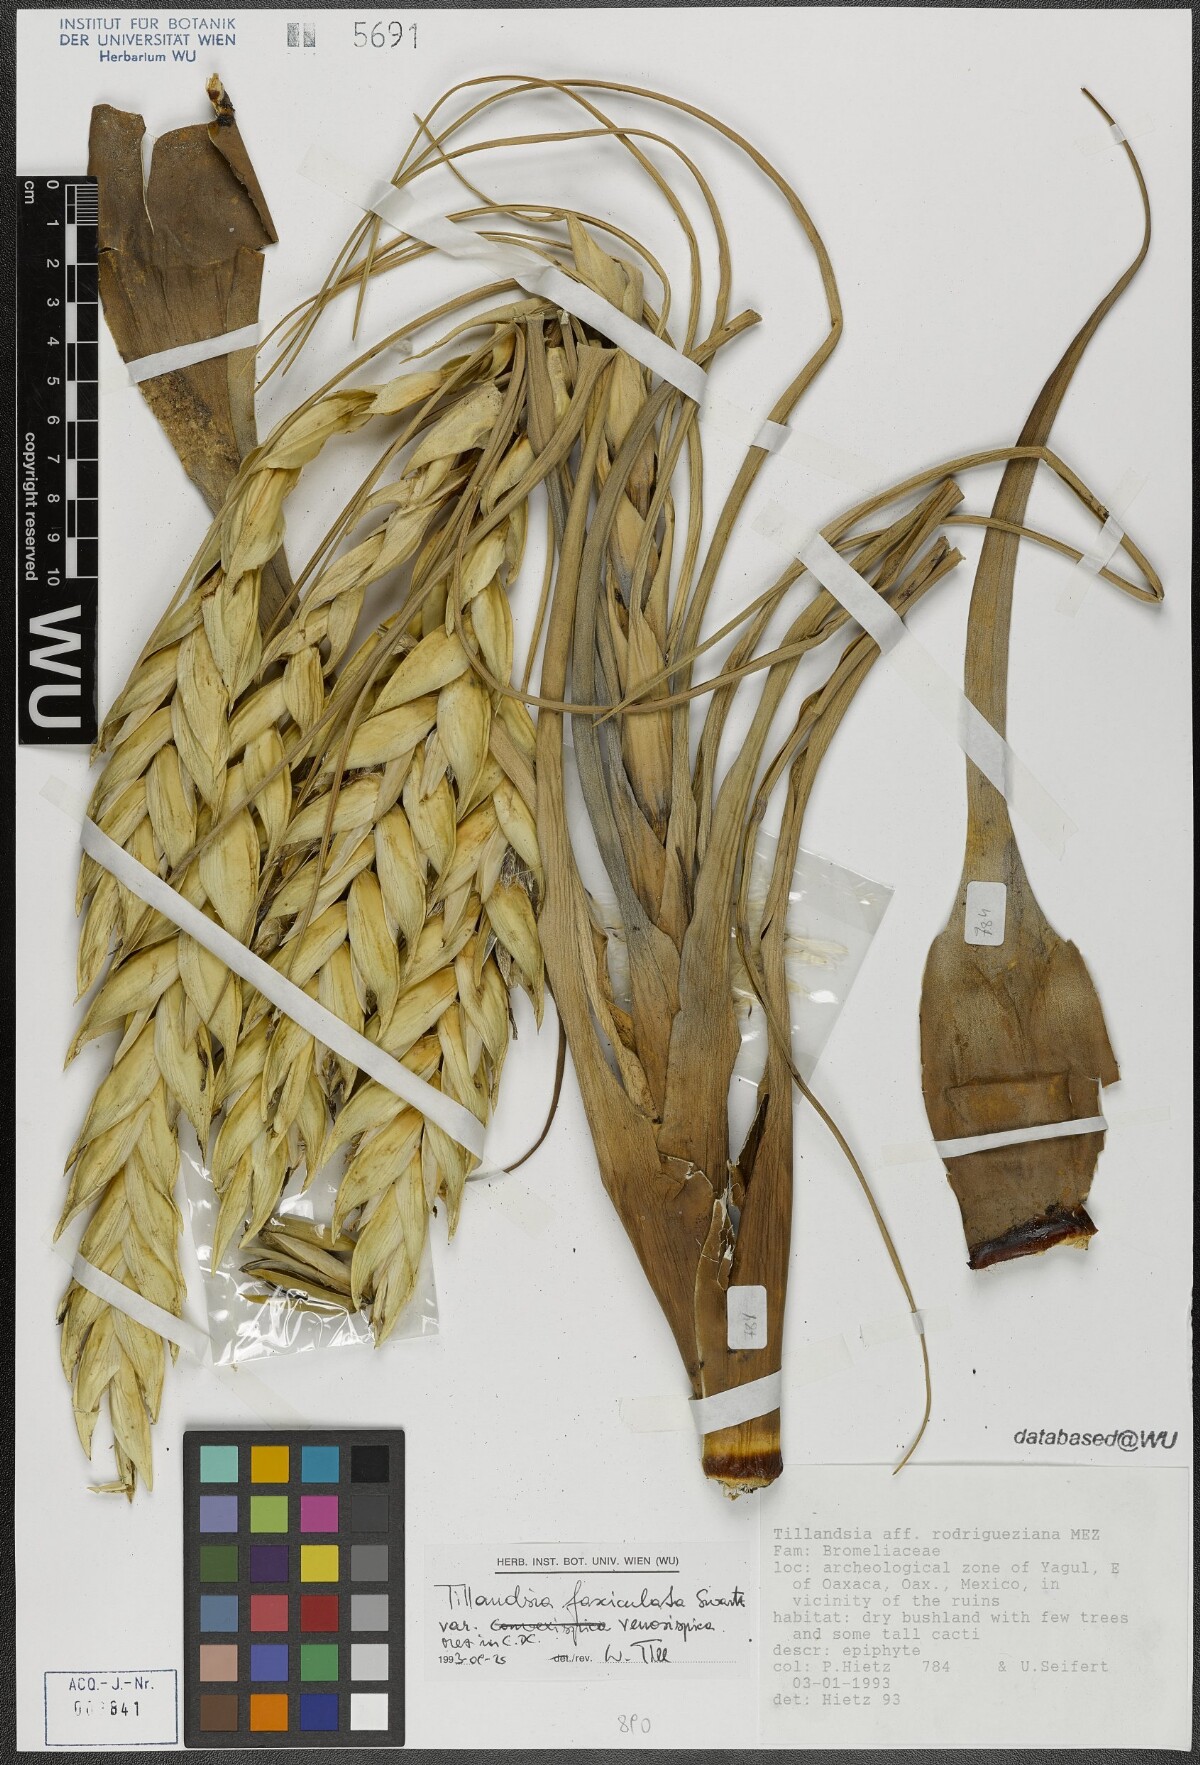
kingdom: Plantae
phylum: Tracheophyta
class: Liliopsida
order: Poales
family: Bromeliaceae
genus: Tillandsia
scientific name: Tillandsia compressa
